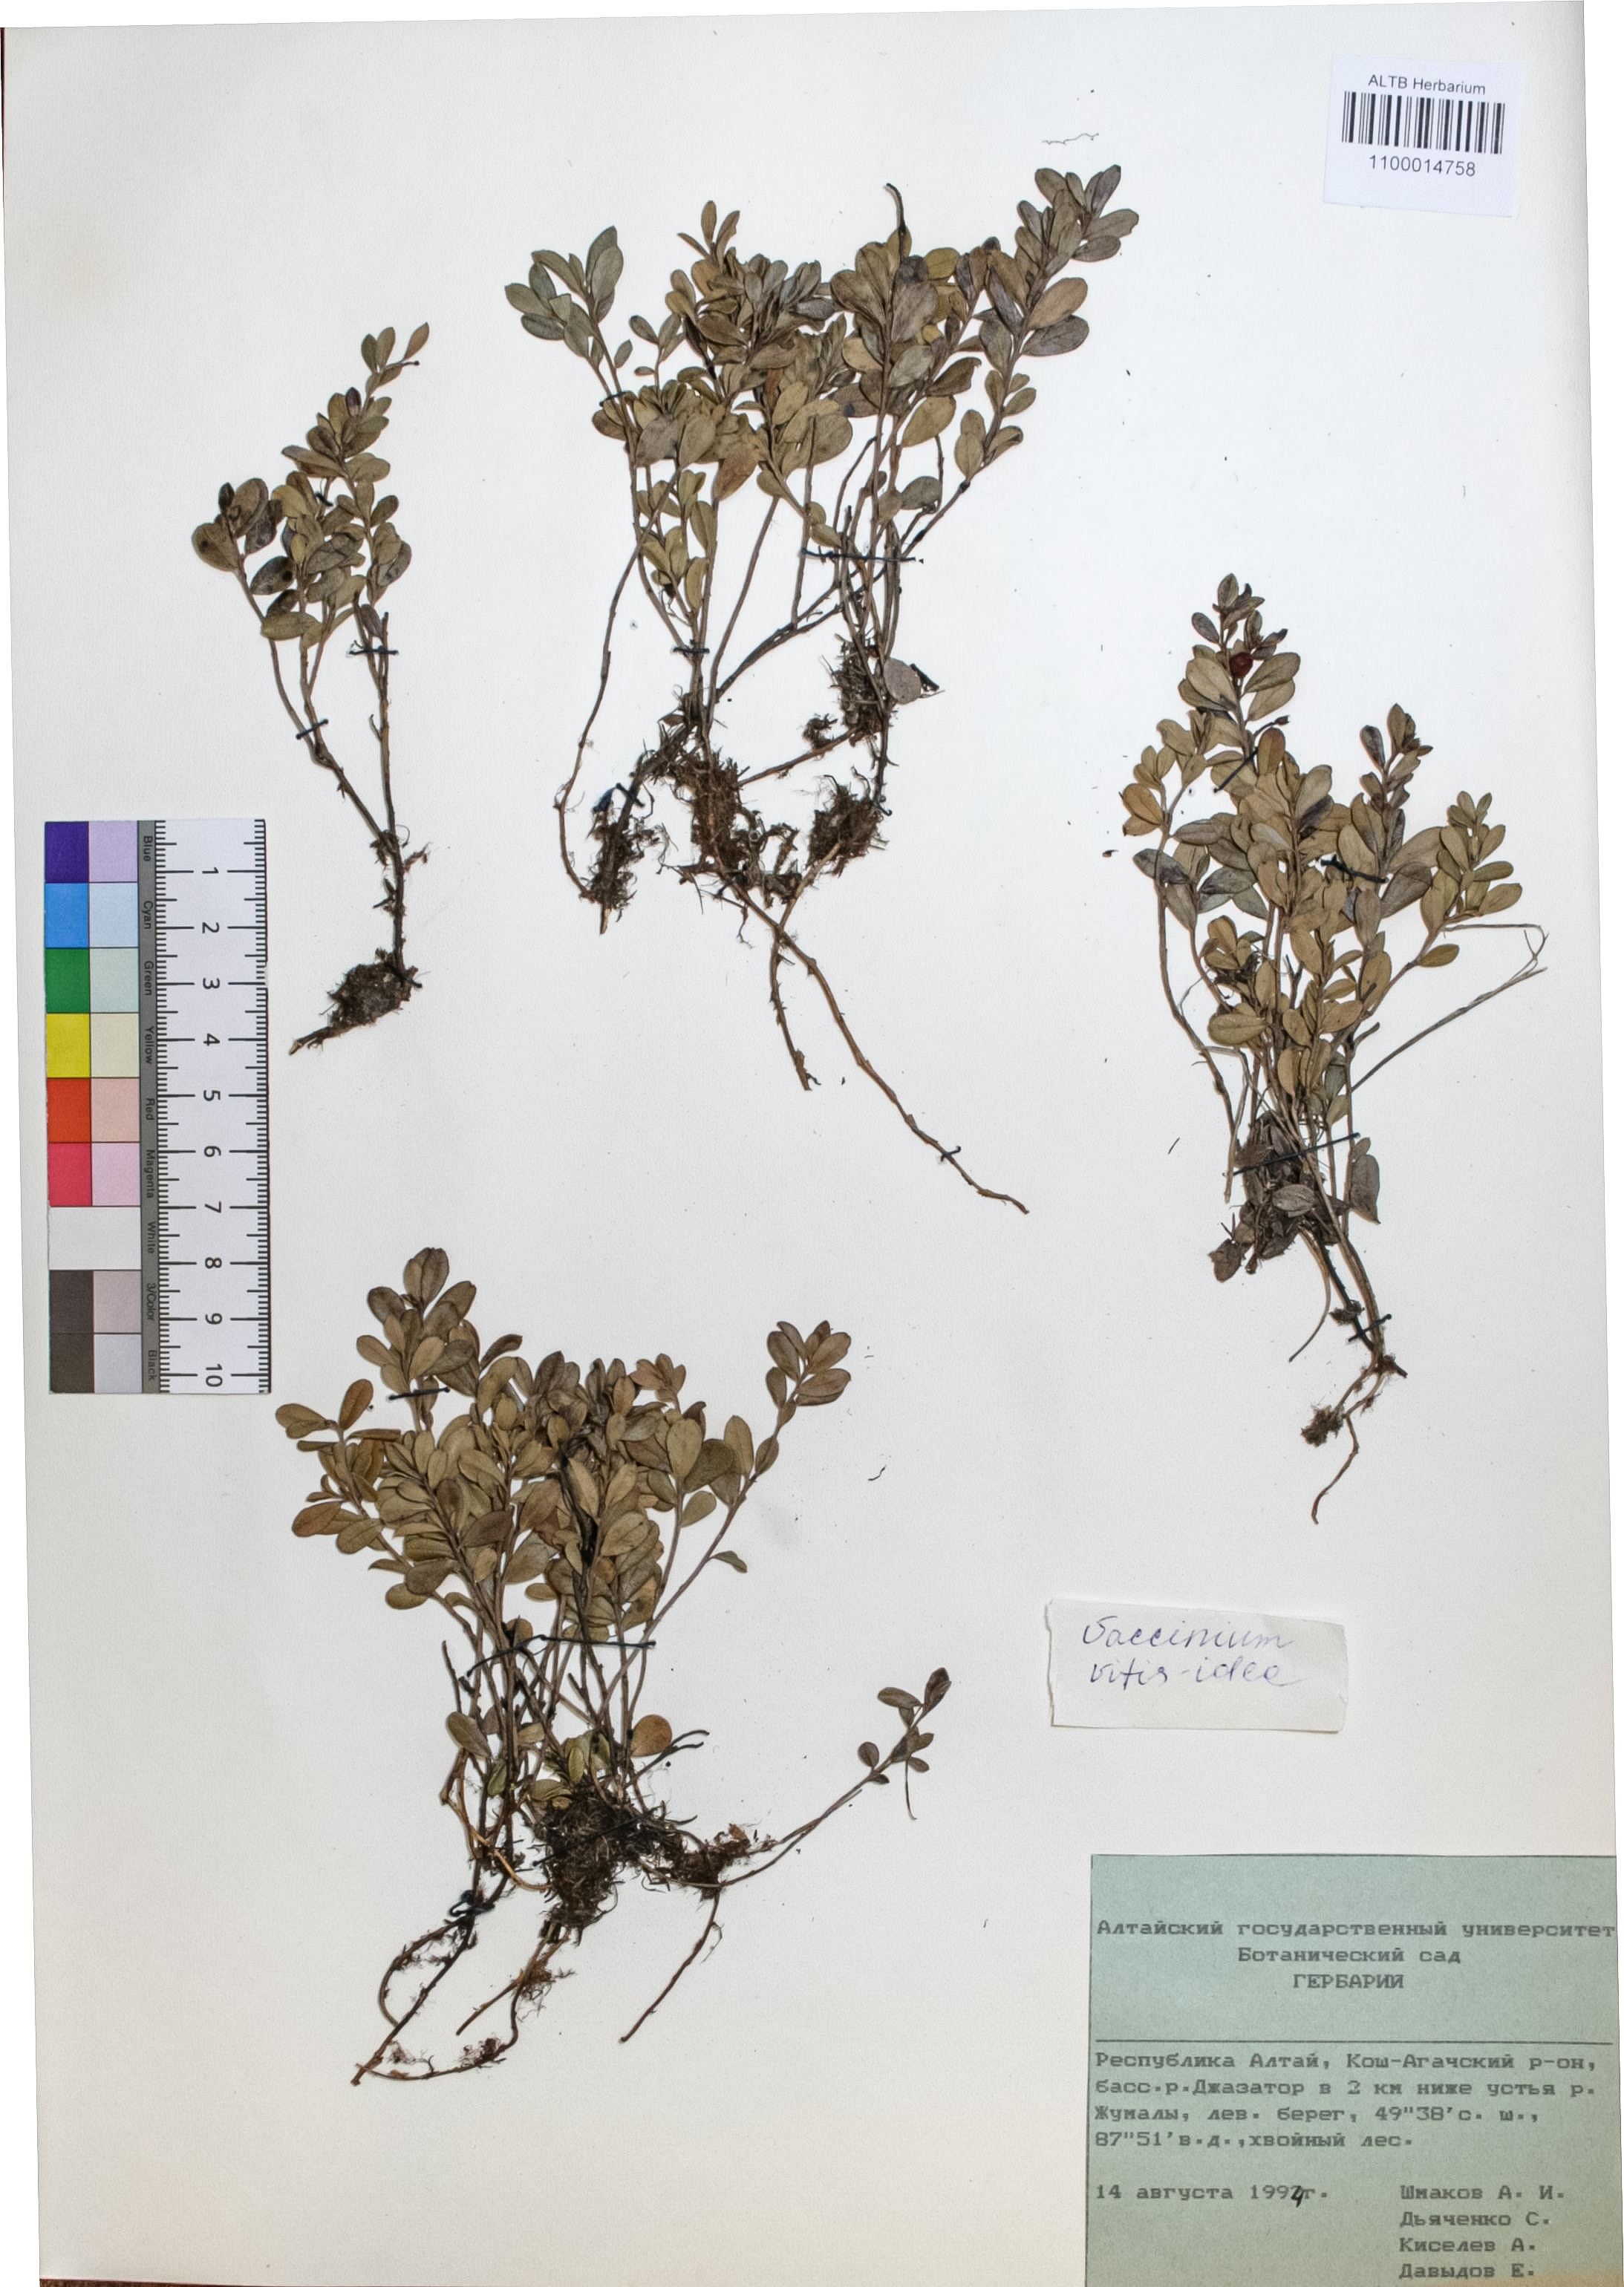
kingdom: Plantae
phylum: Tracheophyta
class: Magnoliopsida
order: Ericales
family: Ericaceae
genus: Vaccinium
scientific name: Vaccinium vitis-idaea
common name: Cowberry
